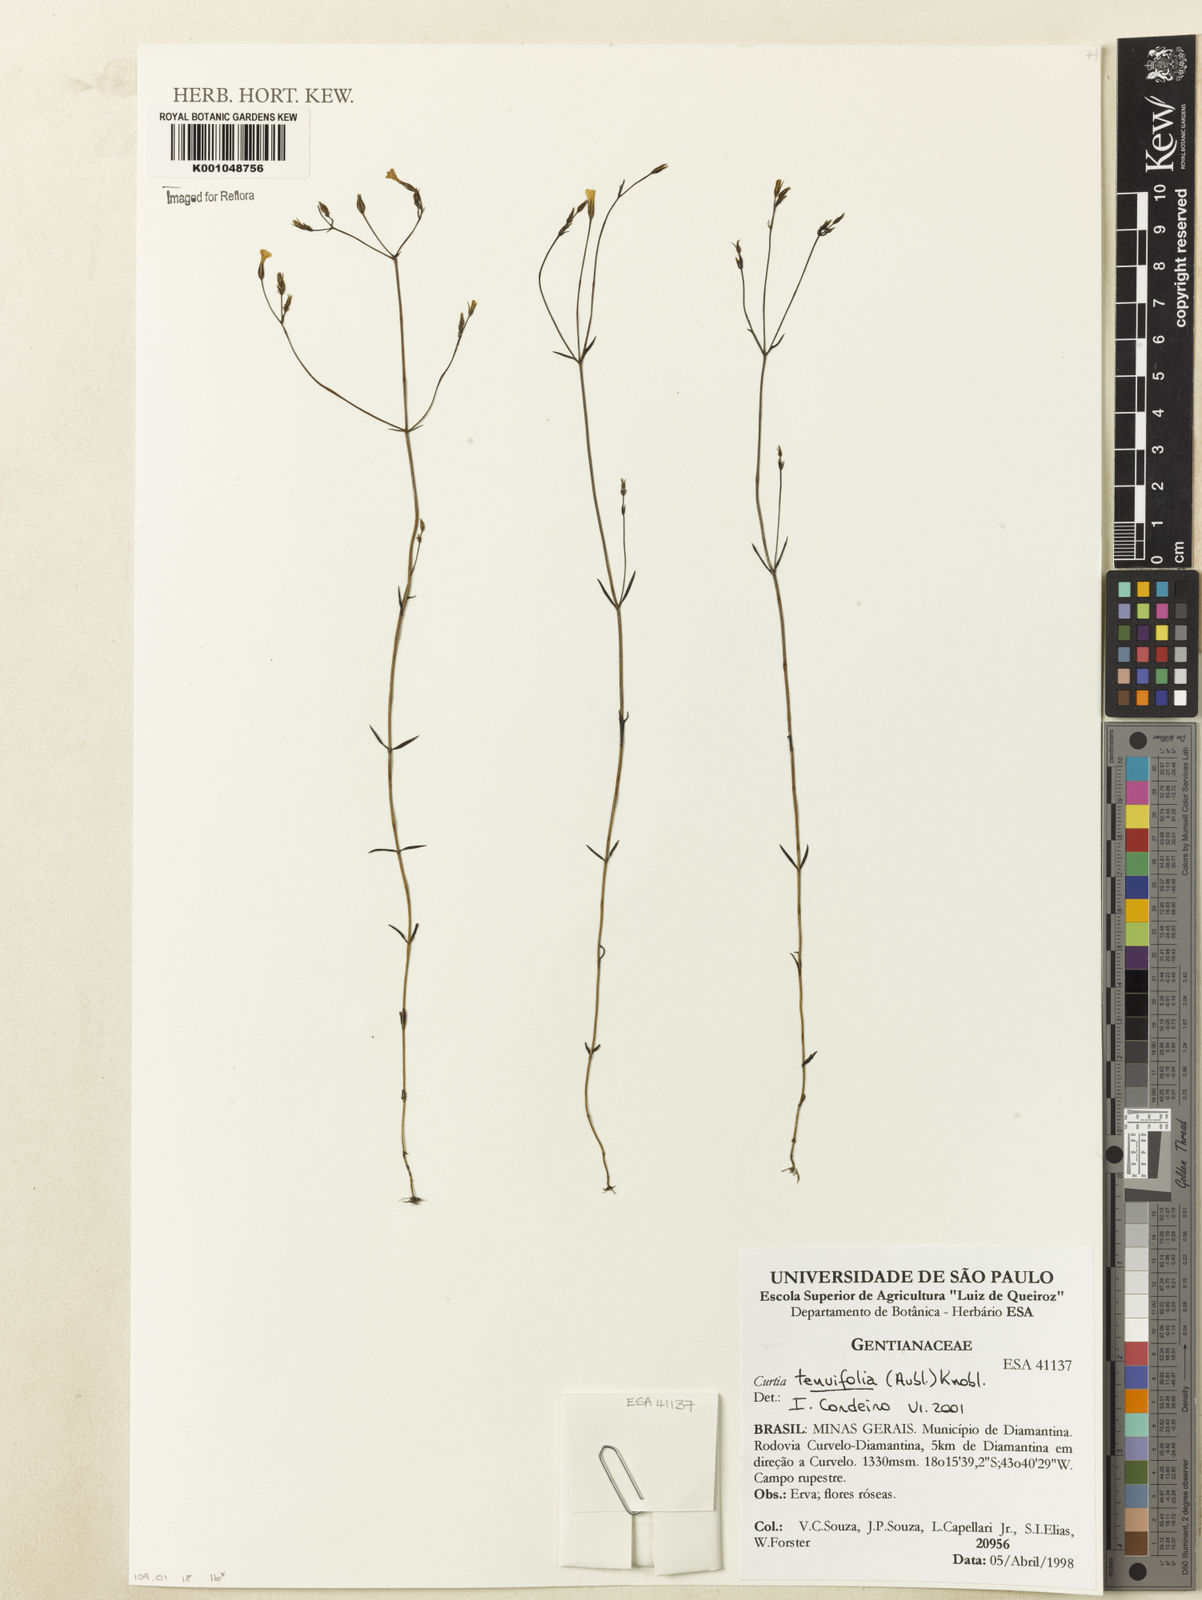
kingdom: Plantae
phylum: Tracheophyta
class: Magnoliopsida
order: Gentianales
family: Gentianaceae
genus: Curtia
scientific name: Curtia tenuifolia
